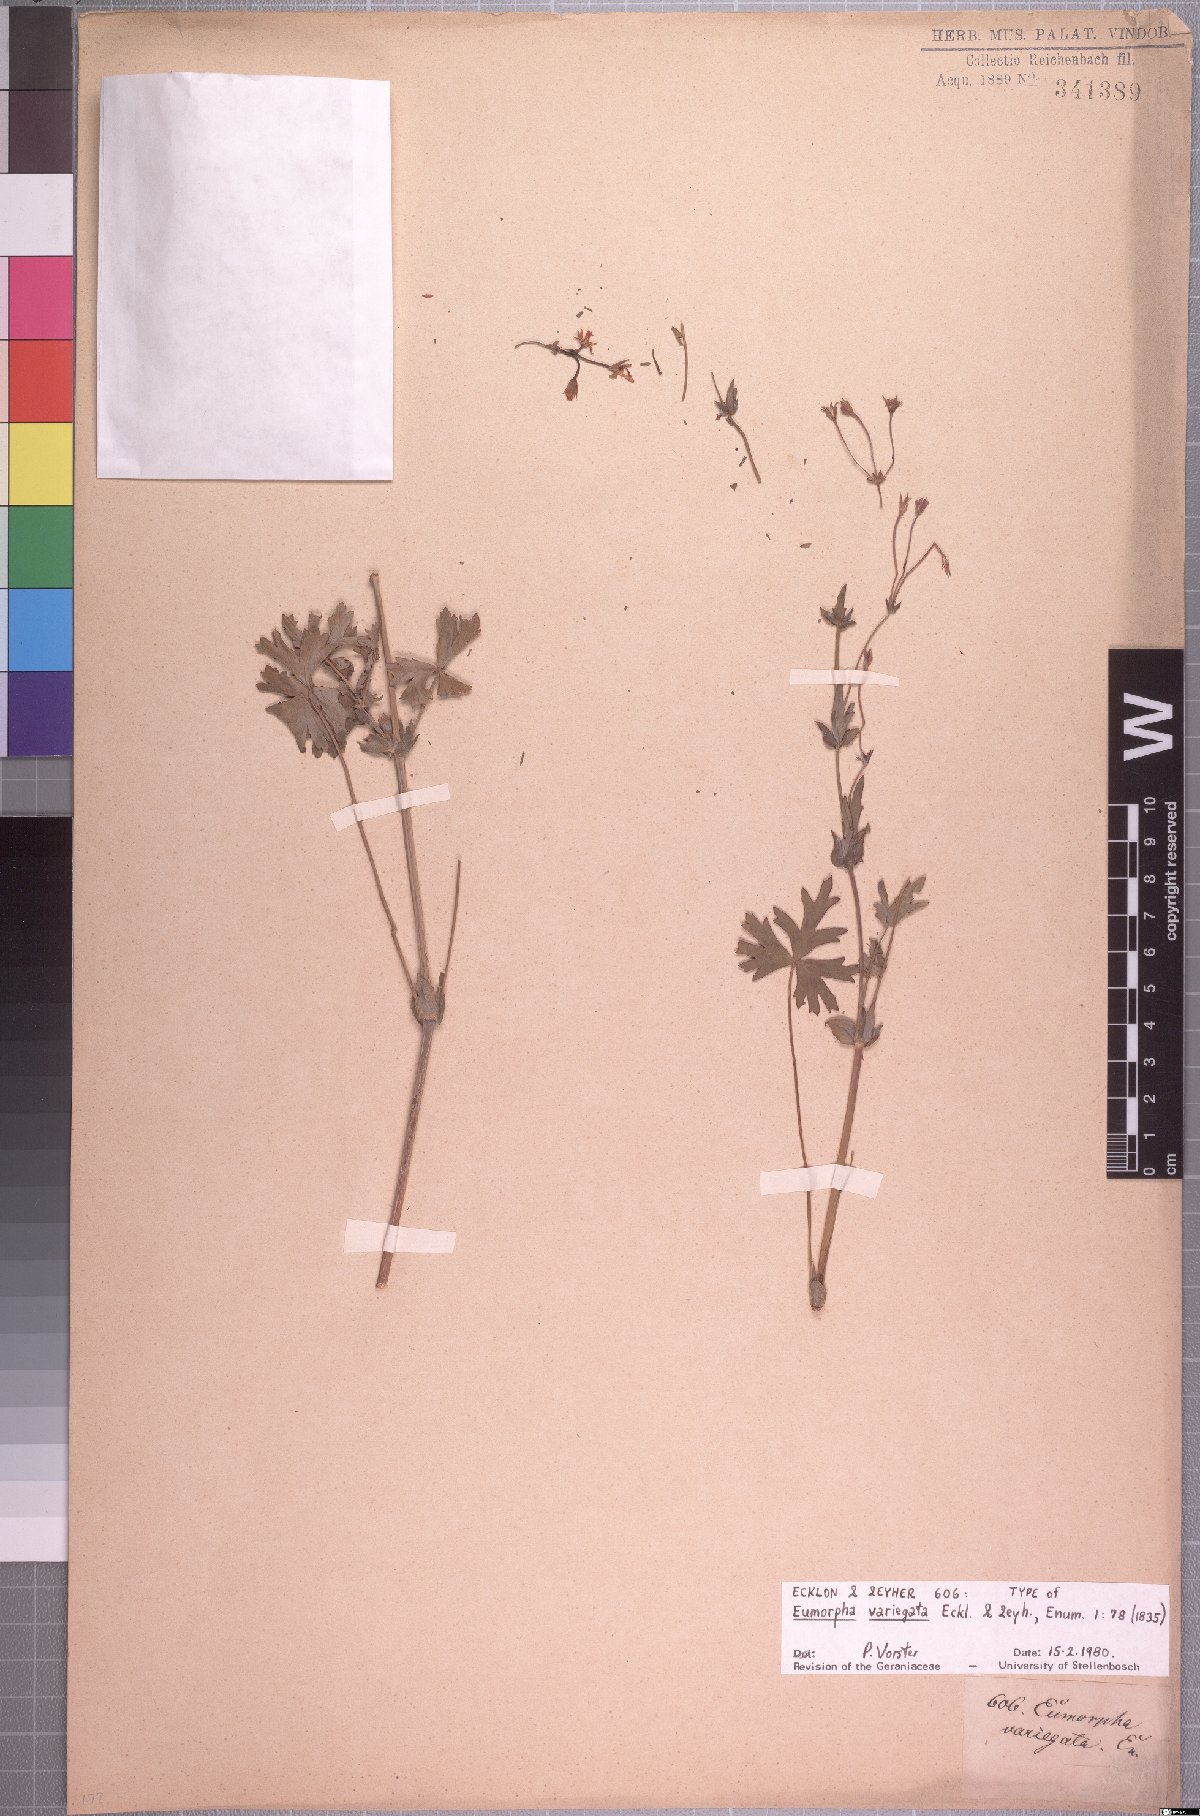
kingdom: Plantae
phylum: Tracheophyta
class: Magnoliopsida
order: Geraniales
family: Geraniaceae
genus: Pelargonium
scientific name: Pelargonium patulum
